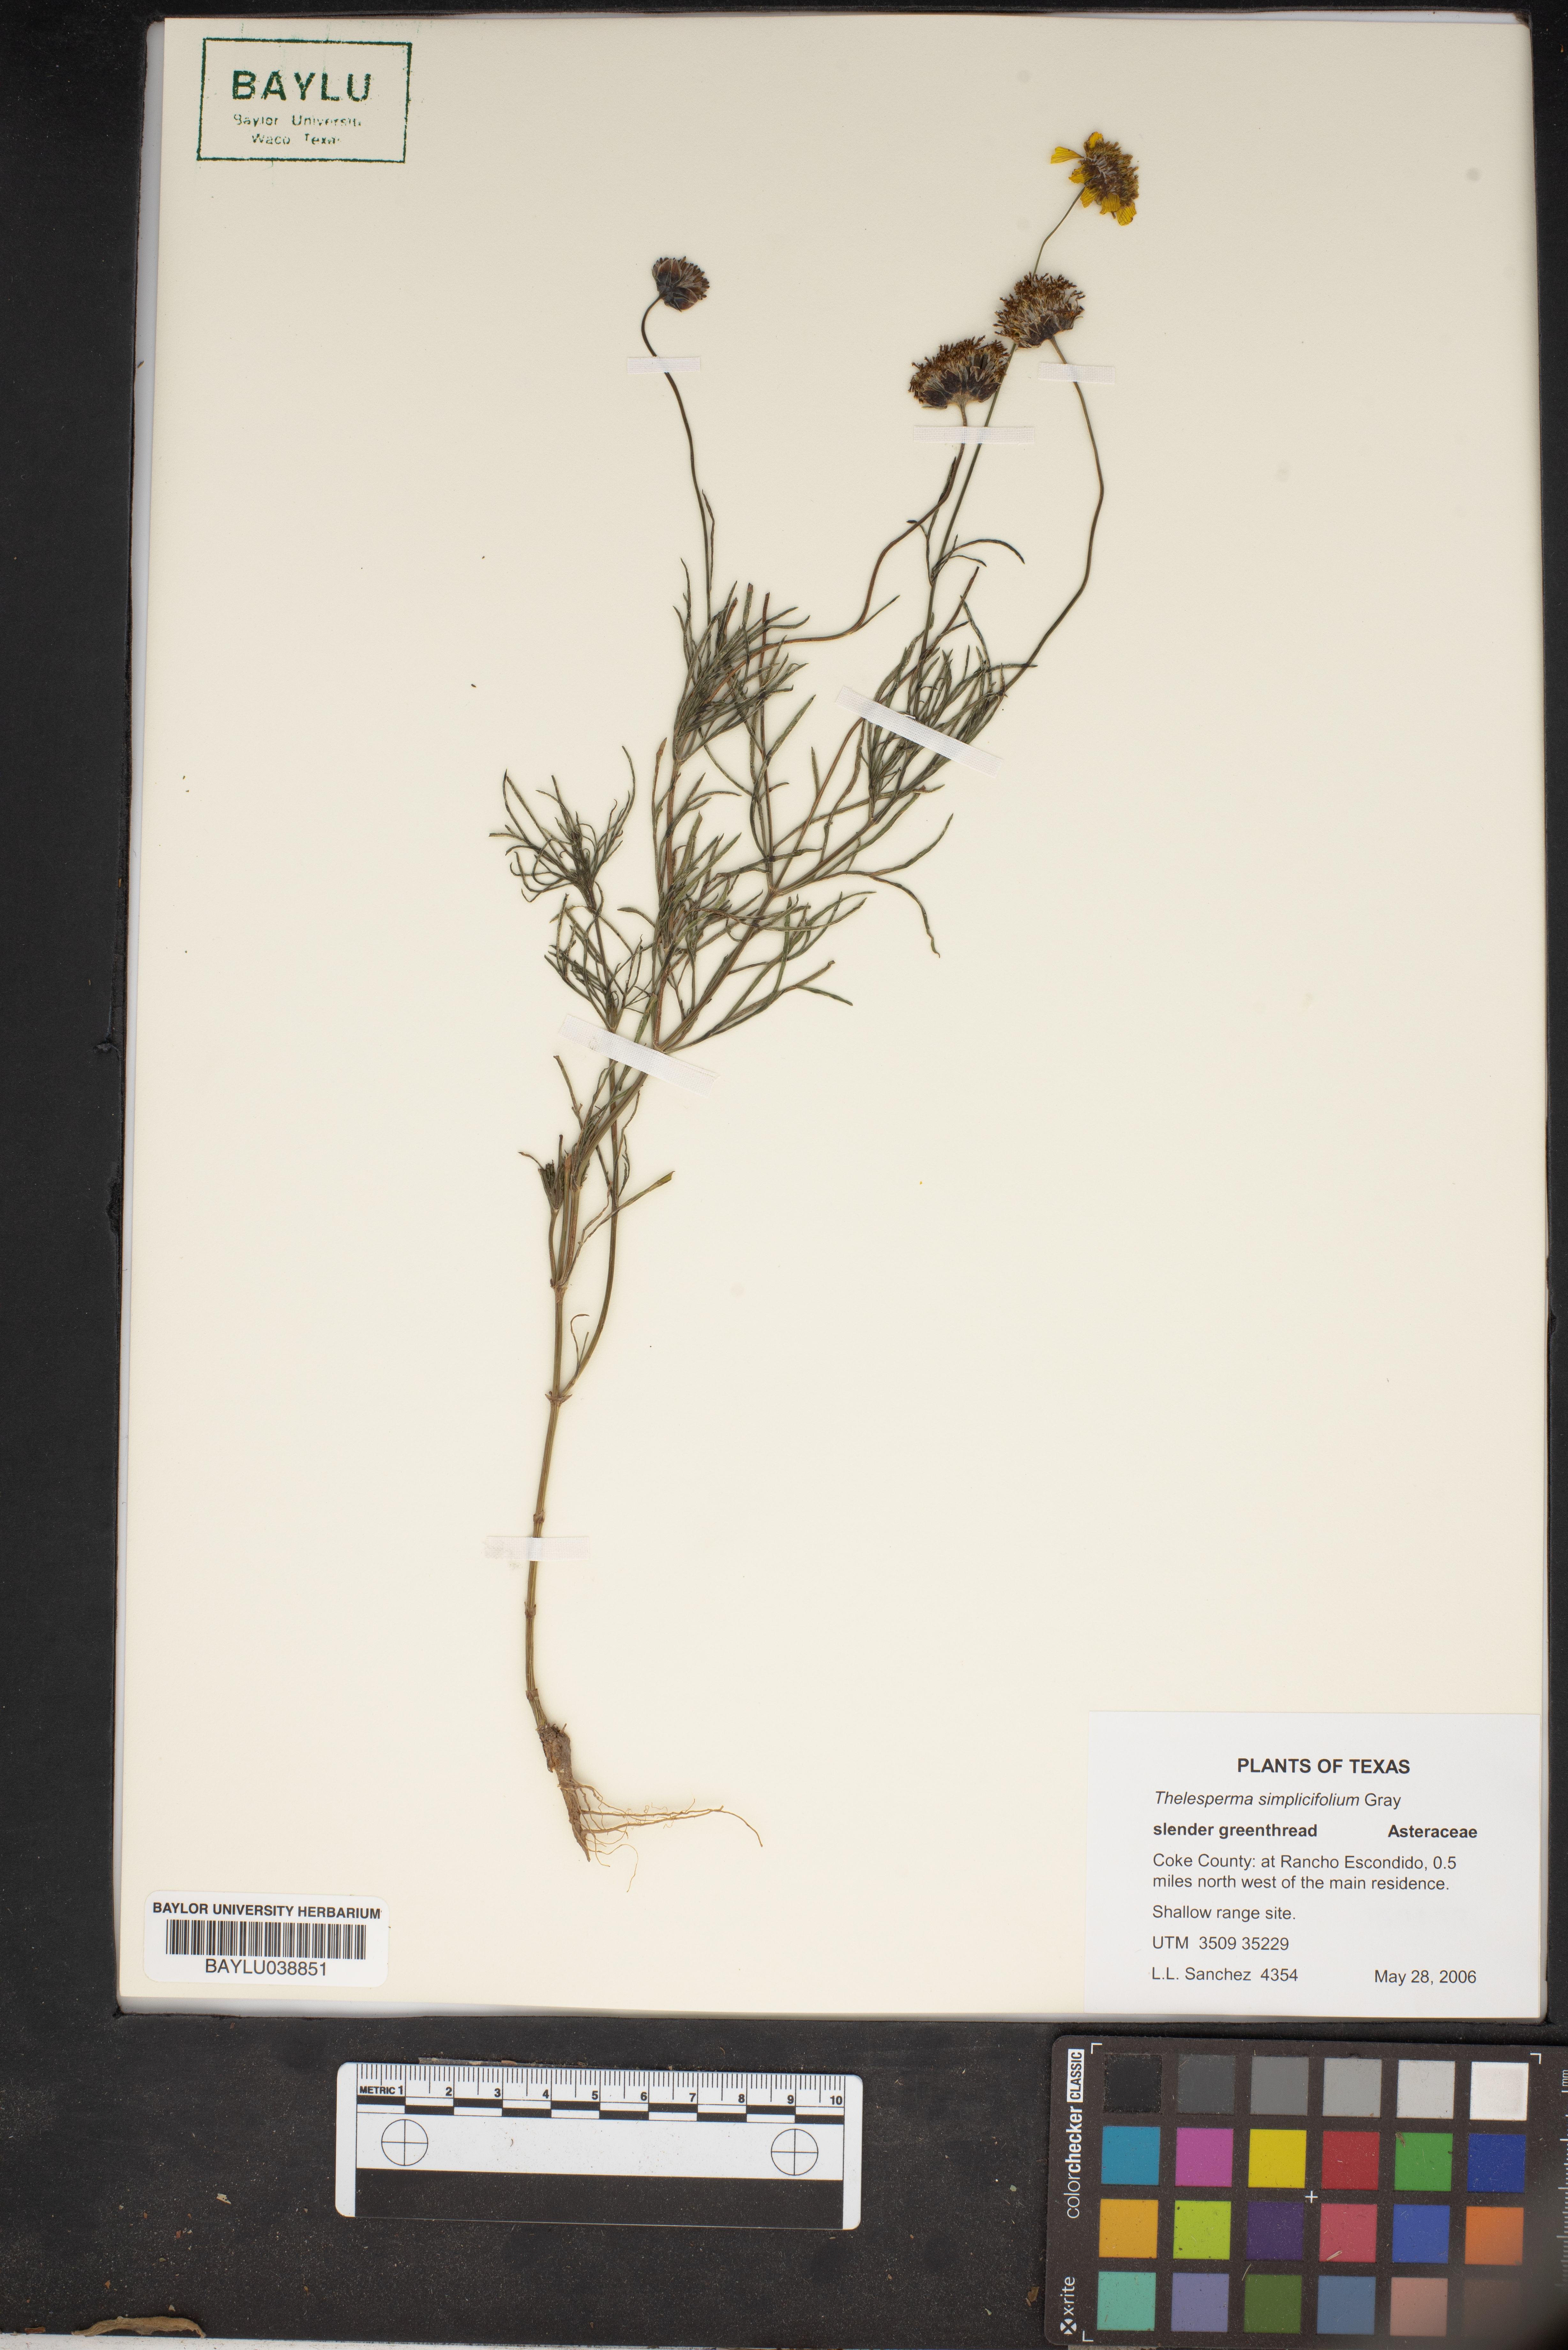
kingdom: Plantae
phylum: Tracheophyta
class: Magnoliopsida
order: Asterales
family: Asteraceae
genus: Thelesperma
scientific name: Thelesperma simplicifolium
